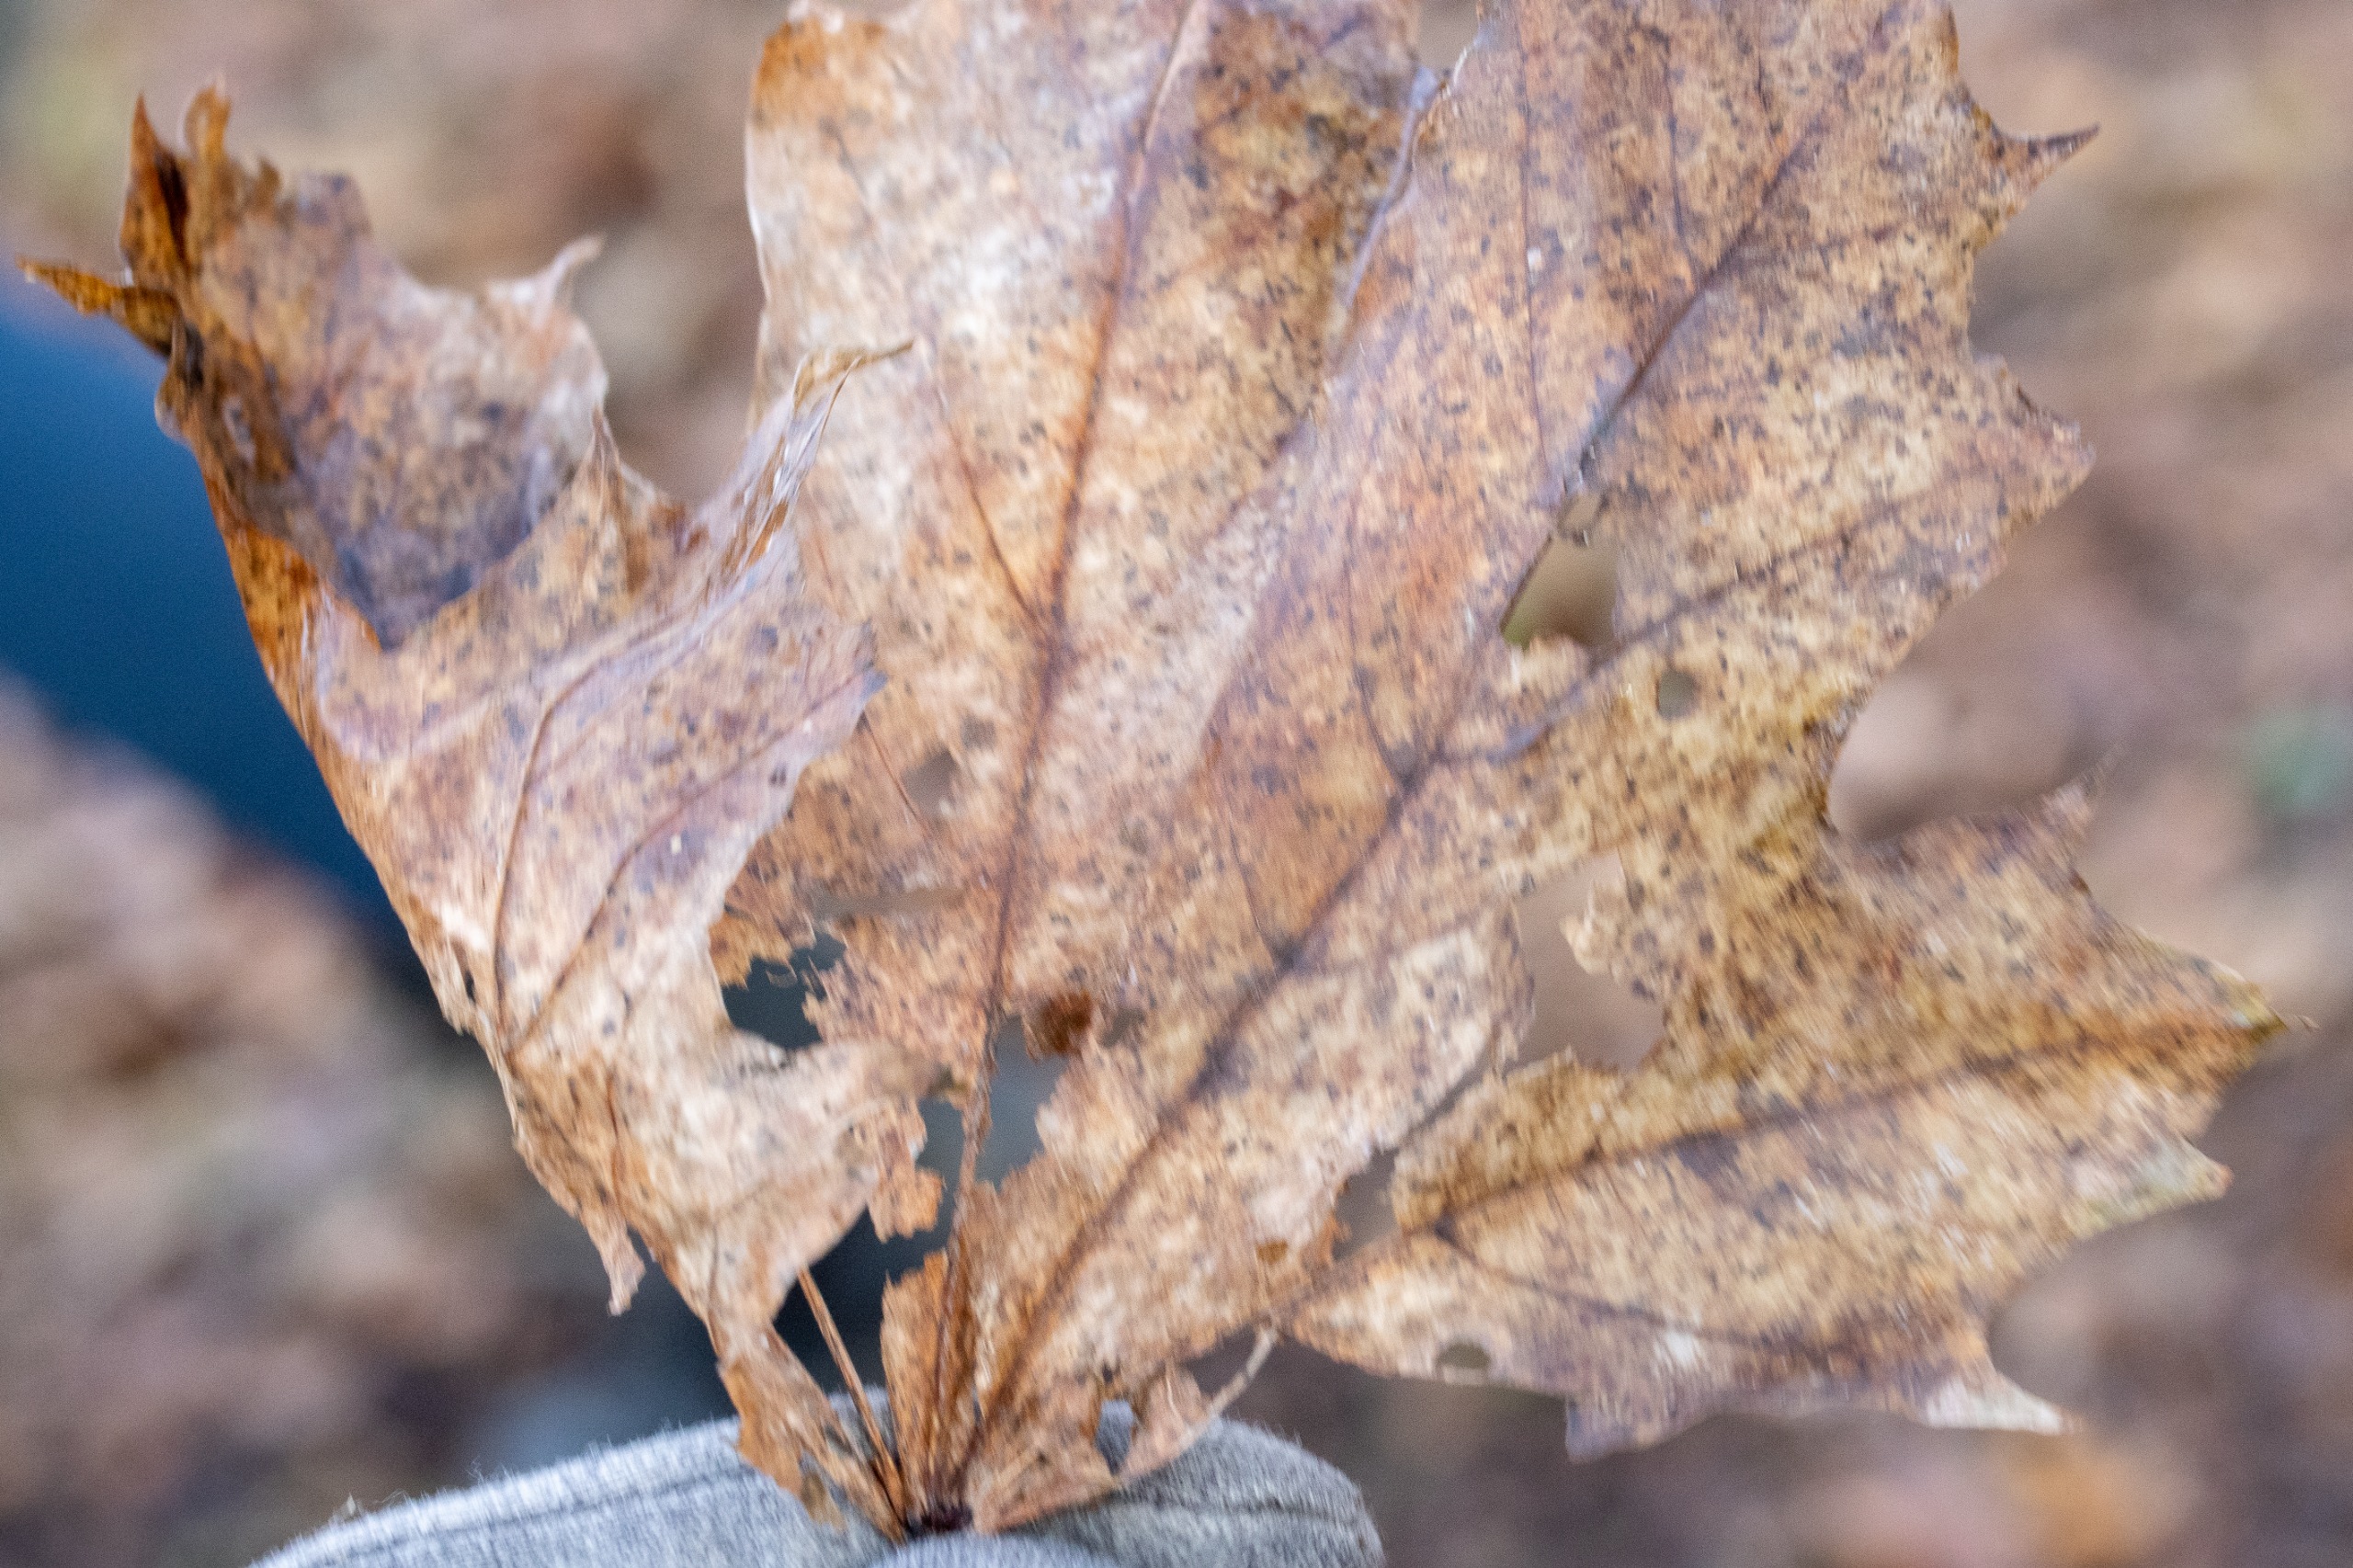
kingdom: Plantae
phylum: Tracheophyta
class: Magnoliopsida
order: Sapindales
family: Sapindaceae
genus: Acer
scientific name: Acer platanoides
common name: Spids-løn
